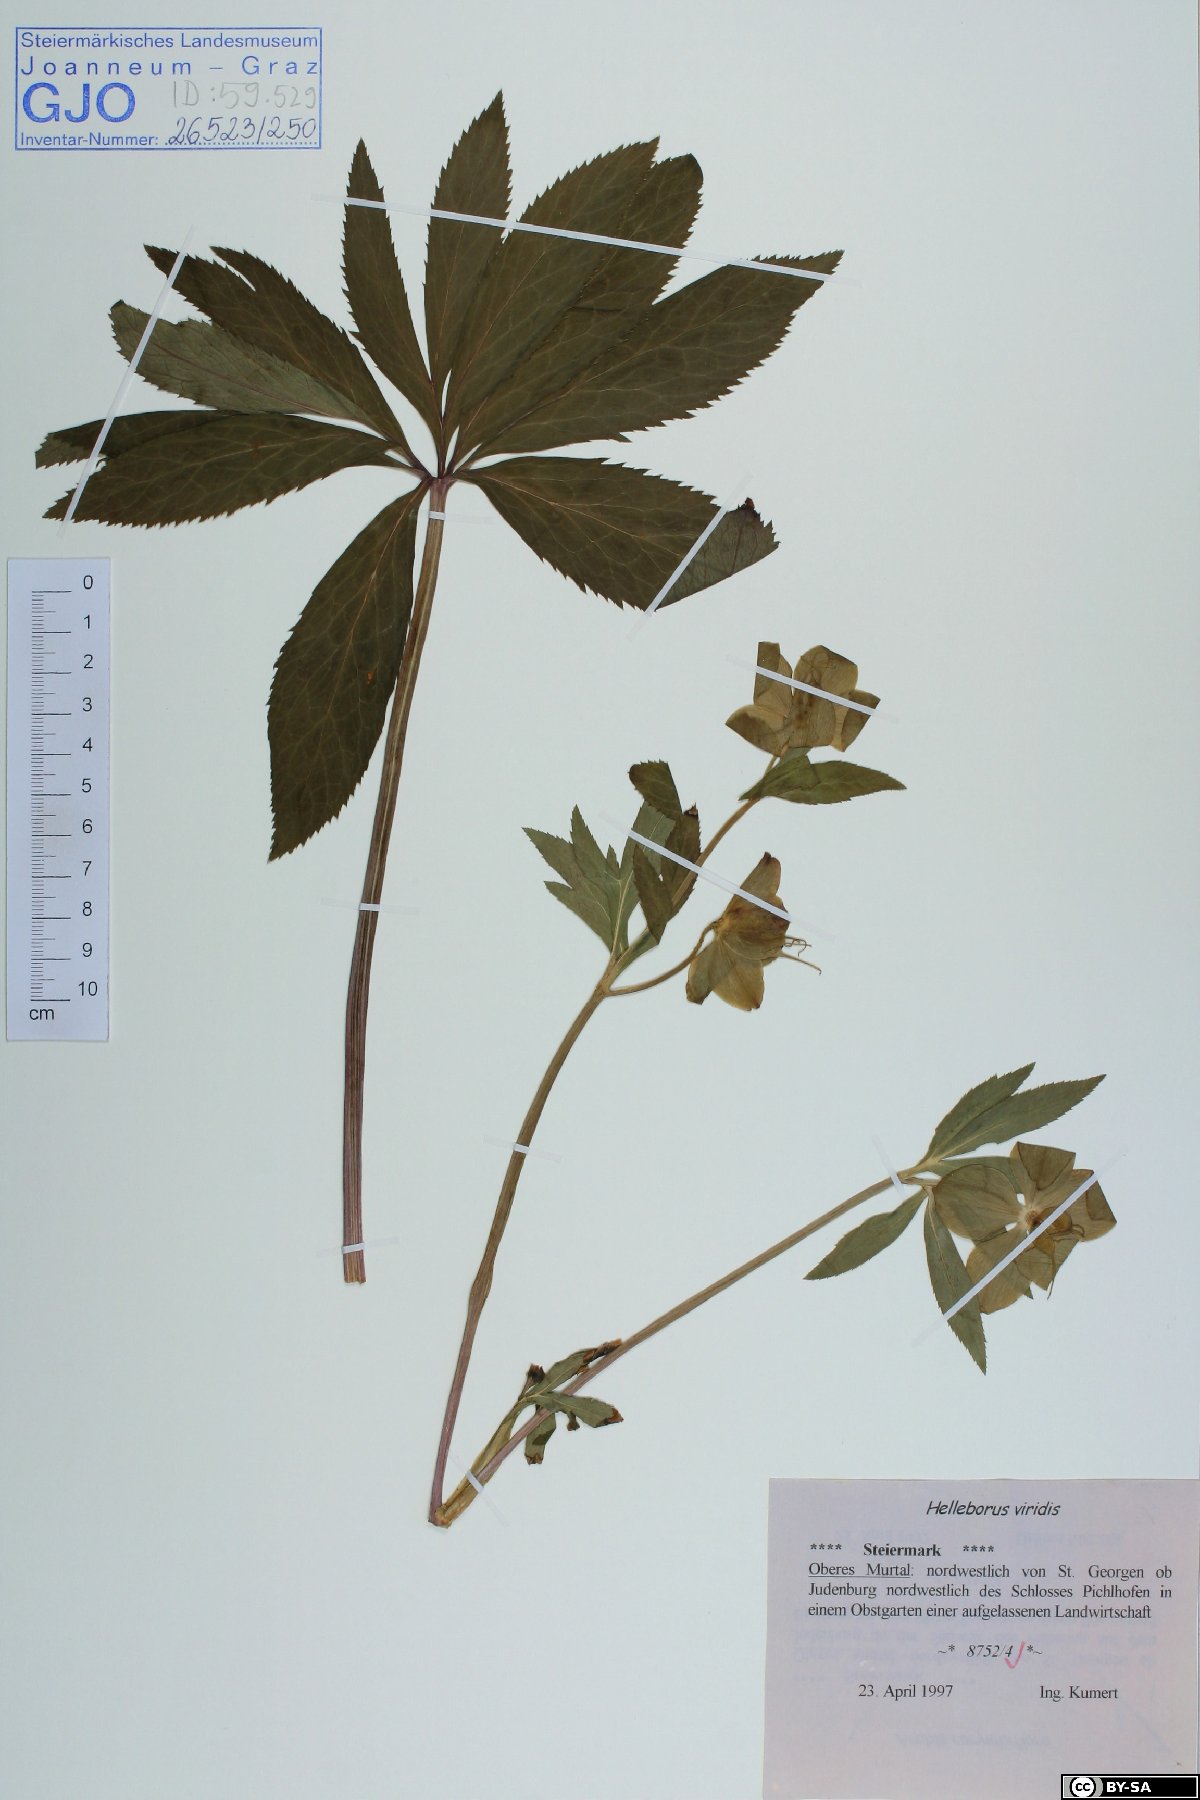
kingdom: Plantae
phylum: Tracheophyta
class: Magnoliopsida
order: Ranunculales
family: Ranunculaceae
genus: Helleborus
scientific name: Helleborus viridis
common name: Green hellebore
